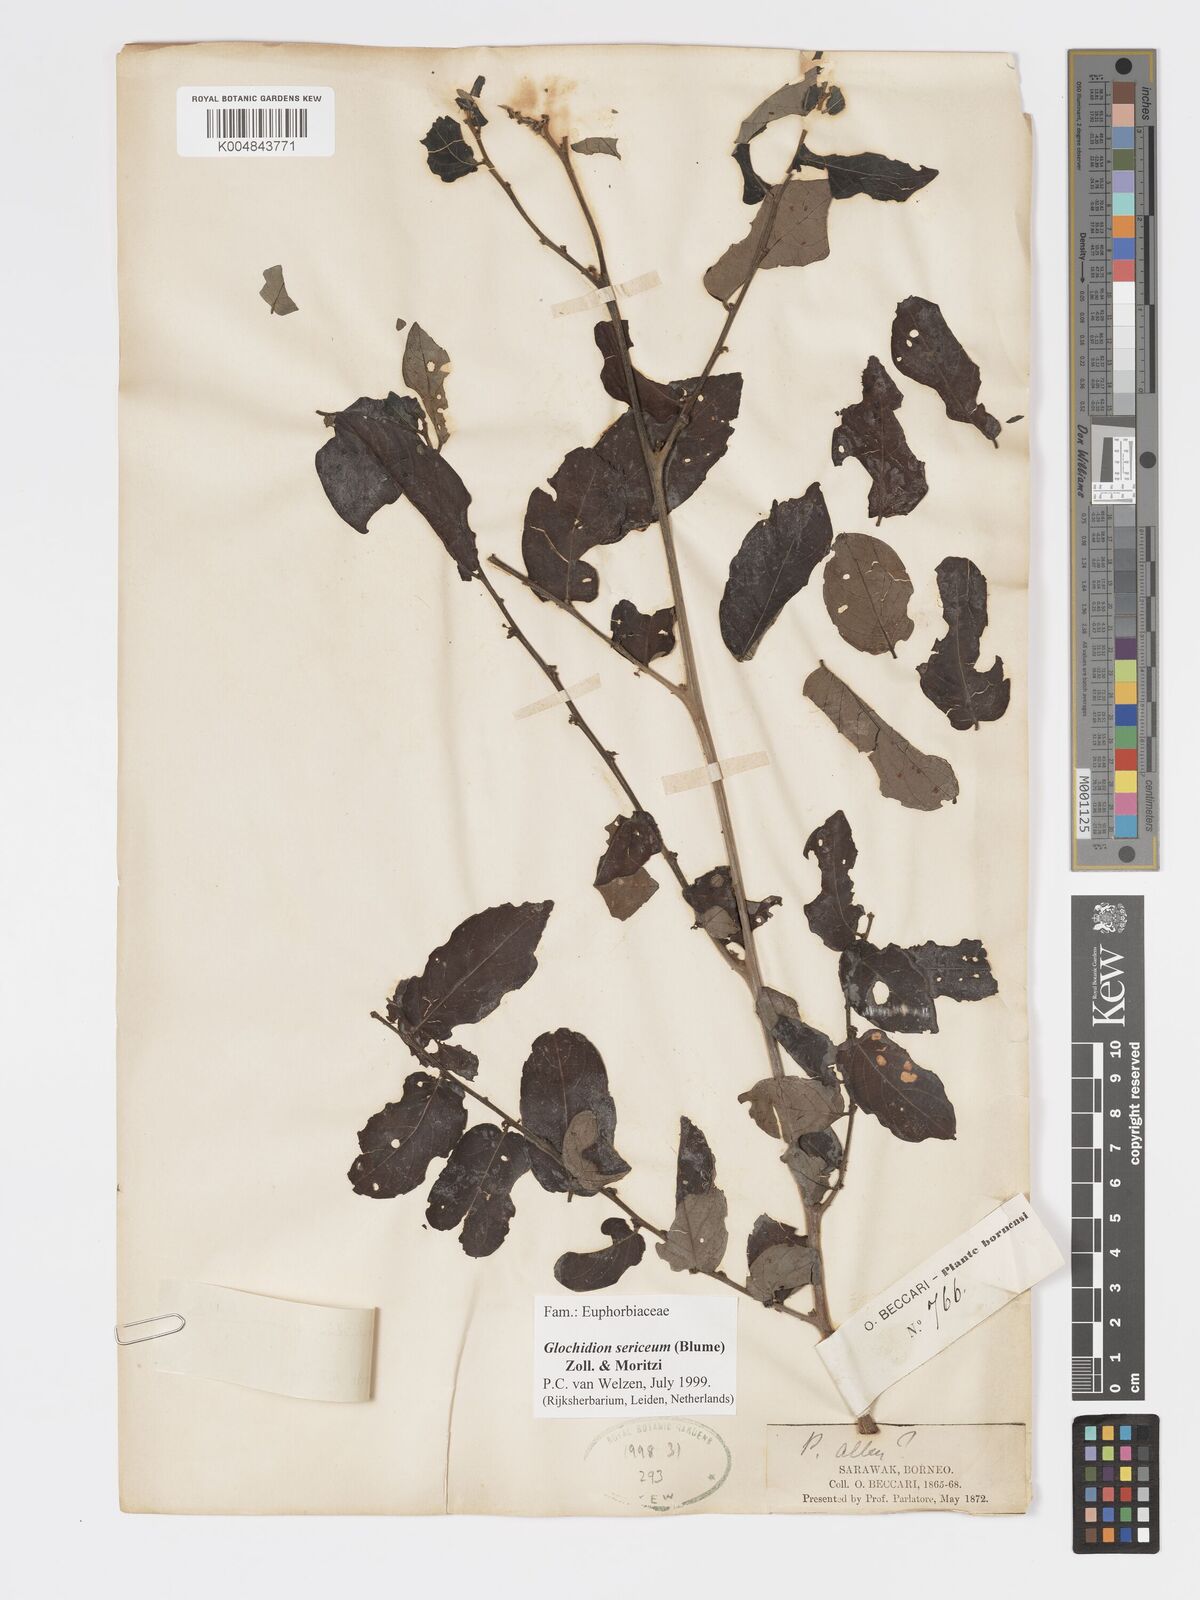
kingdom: Plantae
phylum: Tracheophyta
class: Magnoliopsida
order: Malpighiales
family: Phyllanthaceae
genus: Glochidion
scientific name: Glochidion sericeum
